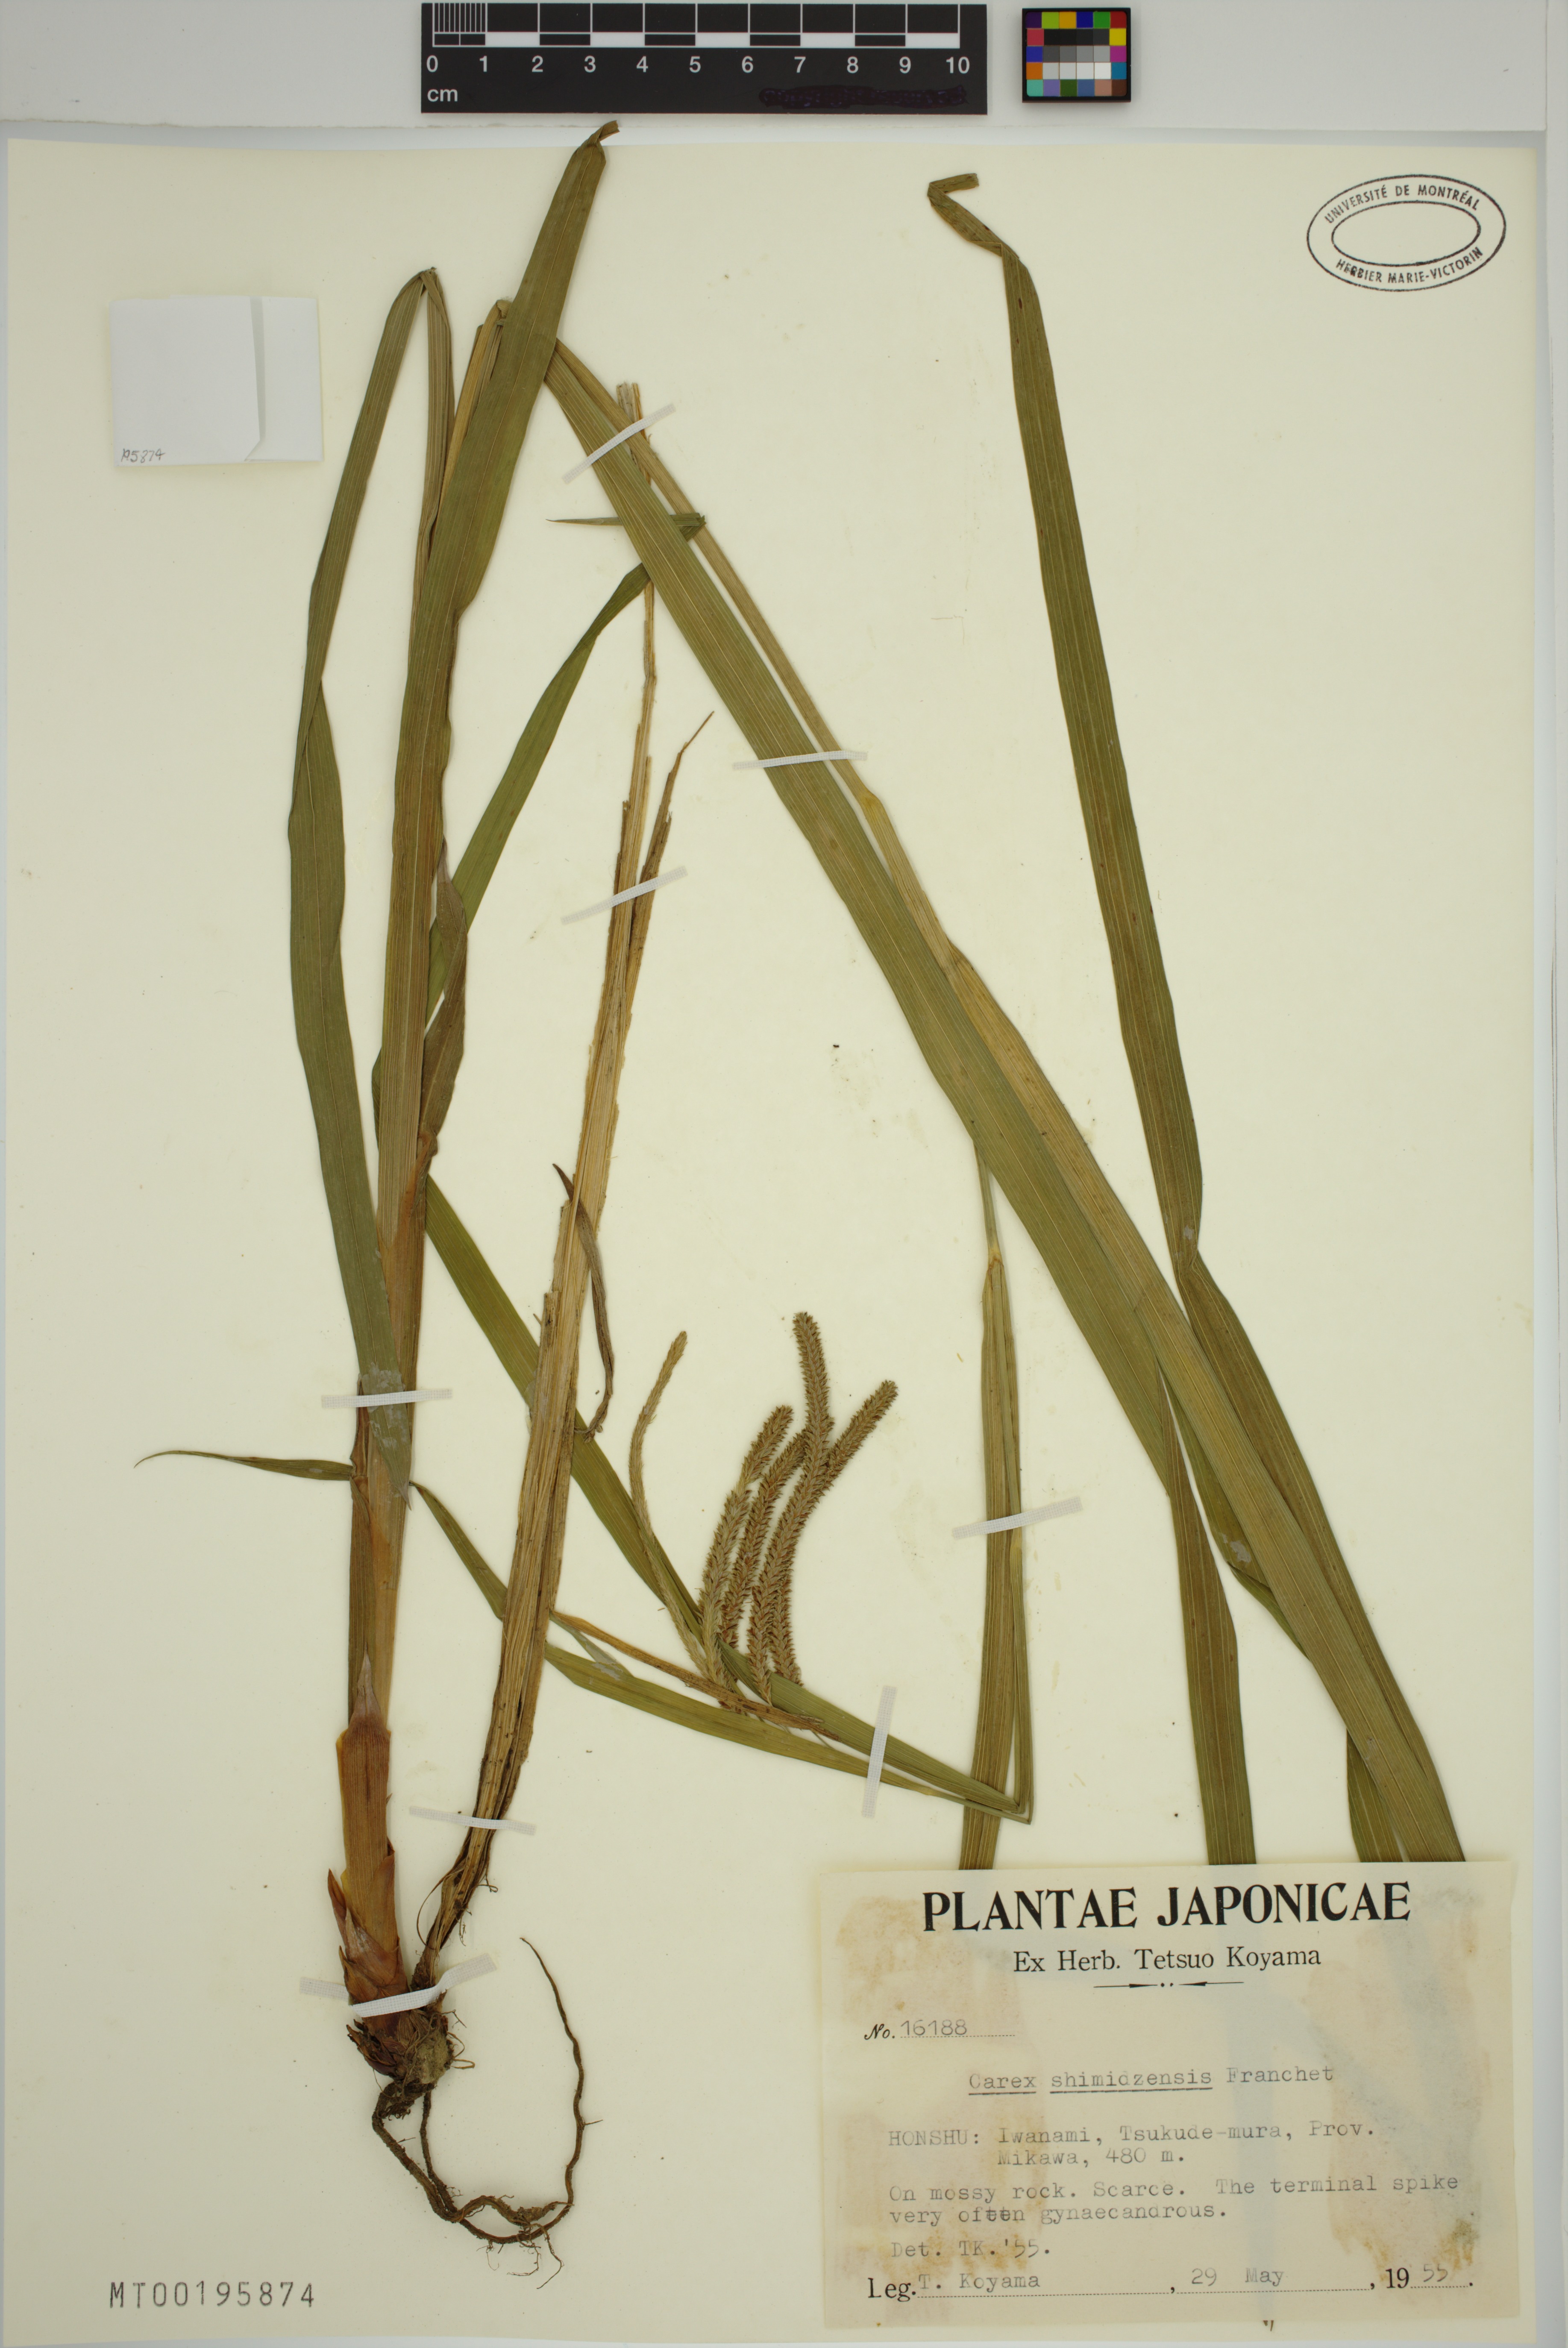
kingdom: Plantae
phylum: Tracheophyta
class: Liliopsida
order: Poales
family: Cyperaceae
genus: Carex
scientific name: Carex shimidzensis
